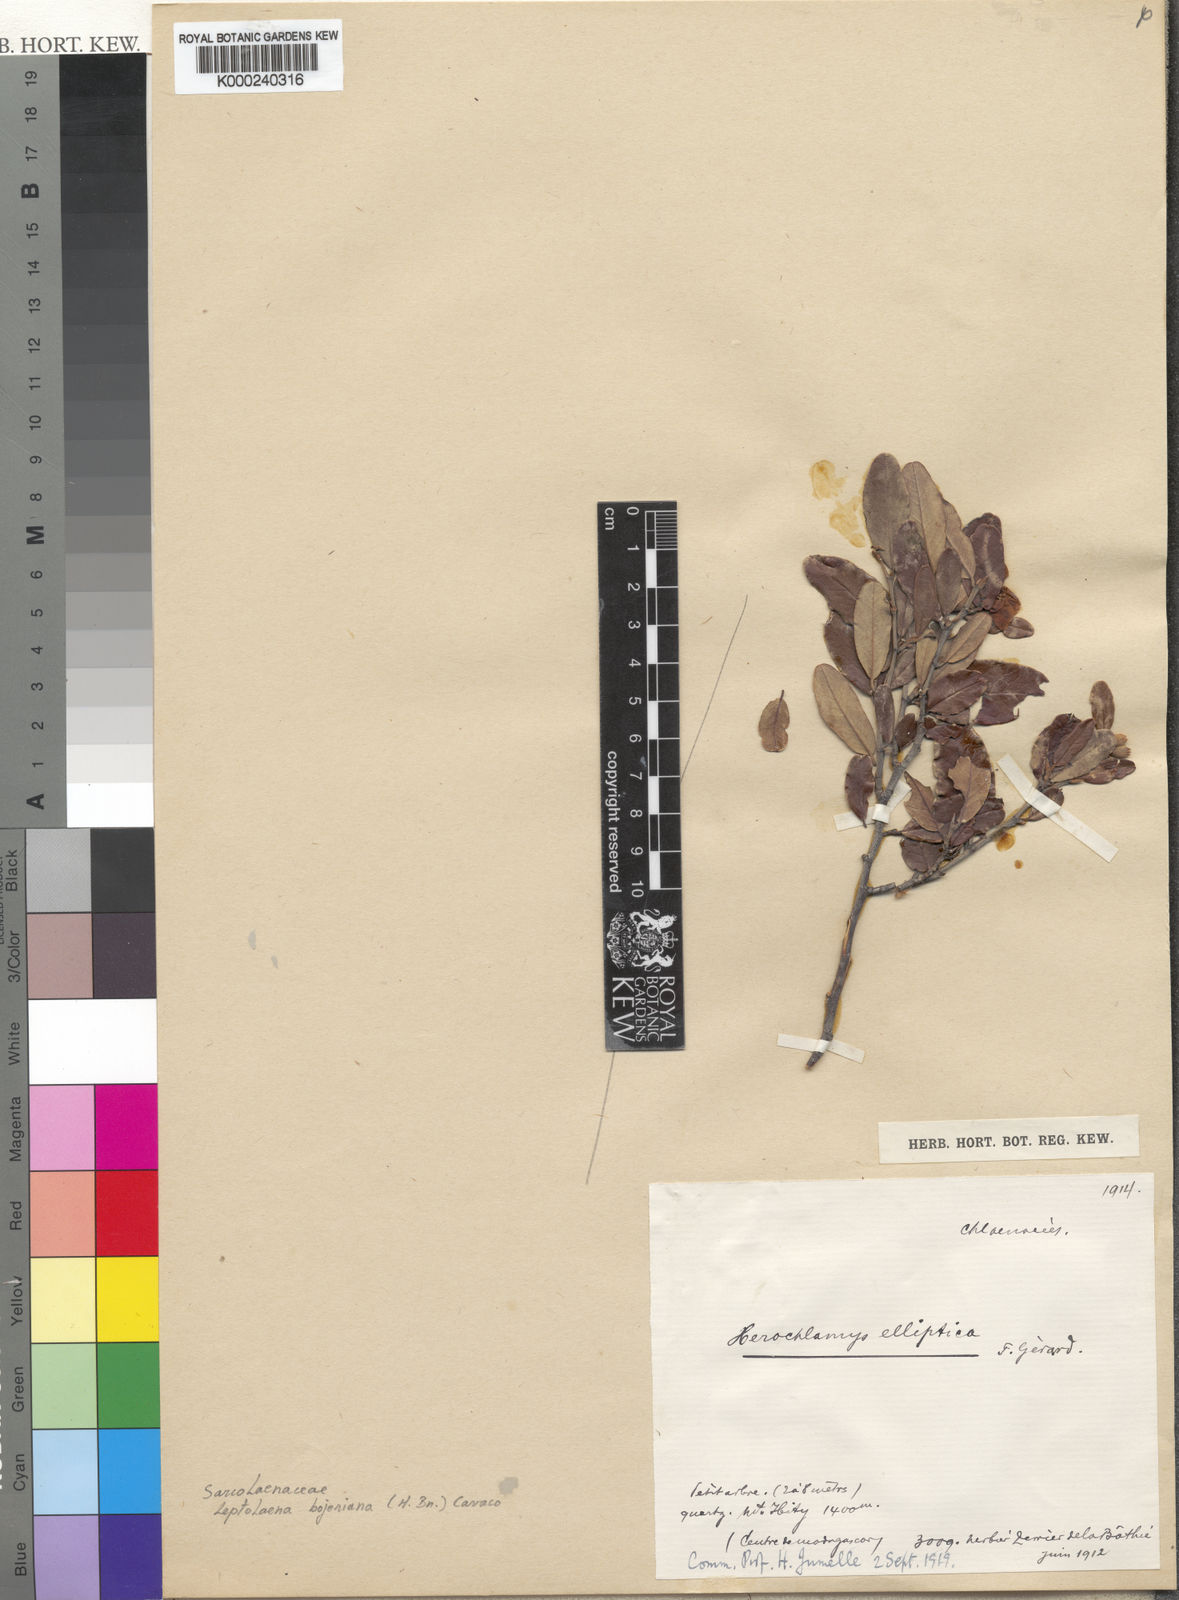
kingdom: Plantae
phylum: Tracheophyta
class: Magnoliopsida
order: Malvales
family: Sarcolaenaceae
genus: Xerochlamys
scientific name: Xerochlamys bojeriana
